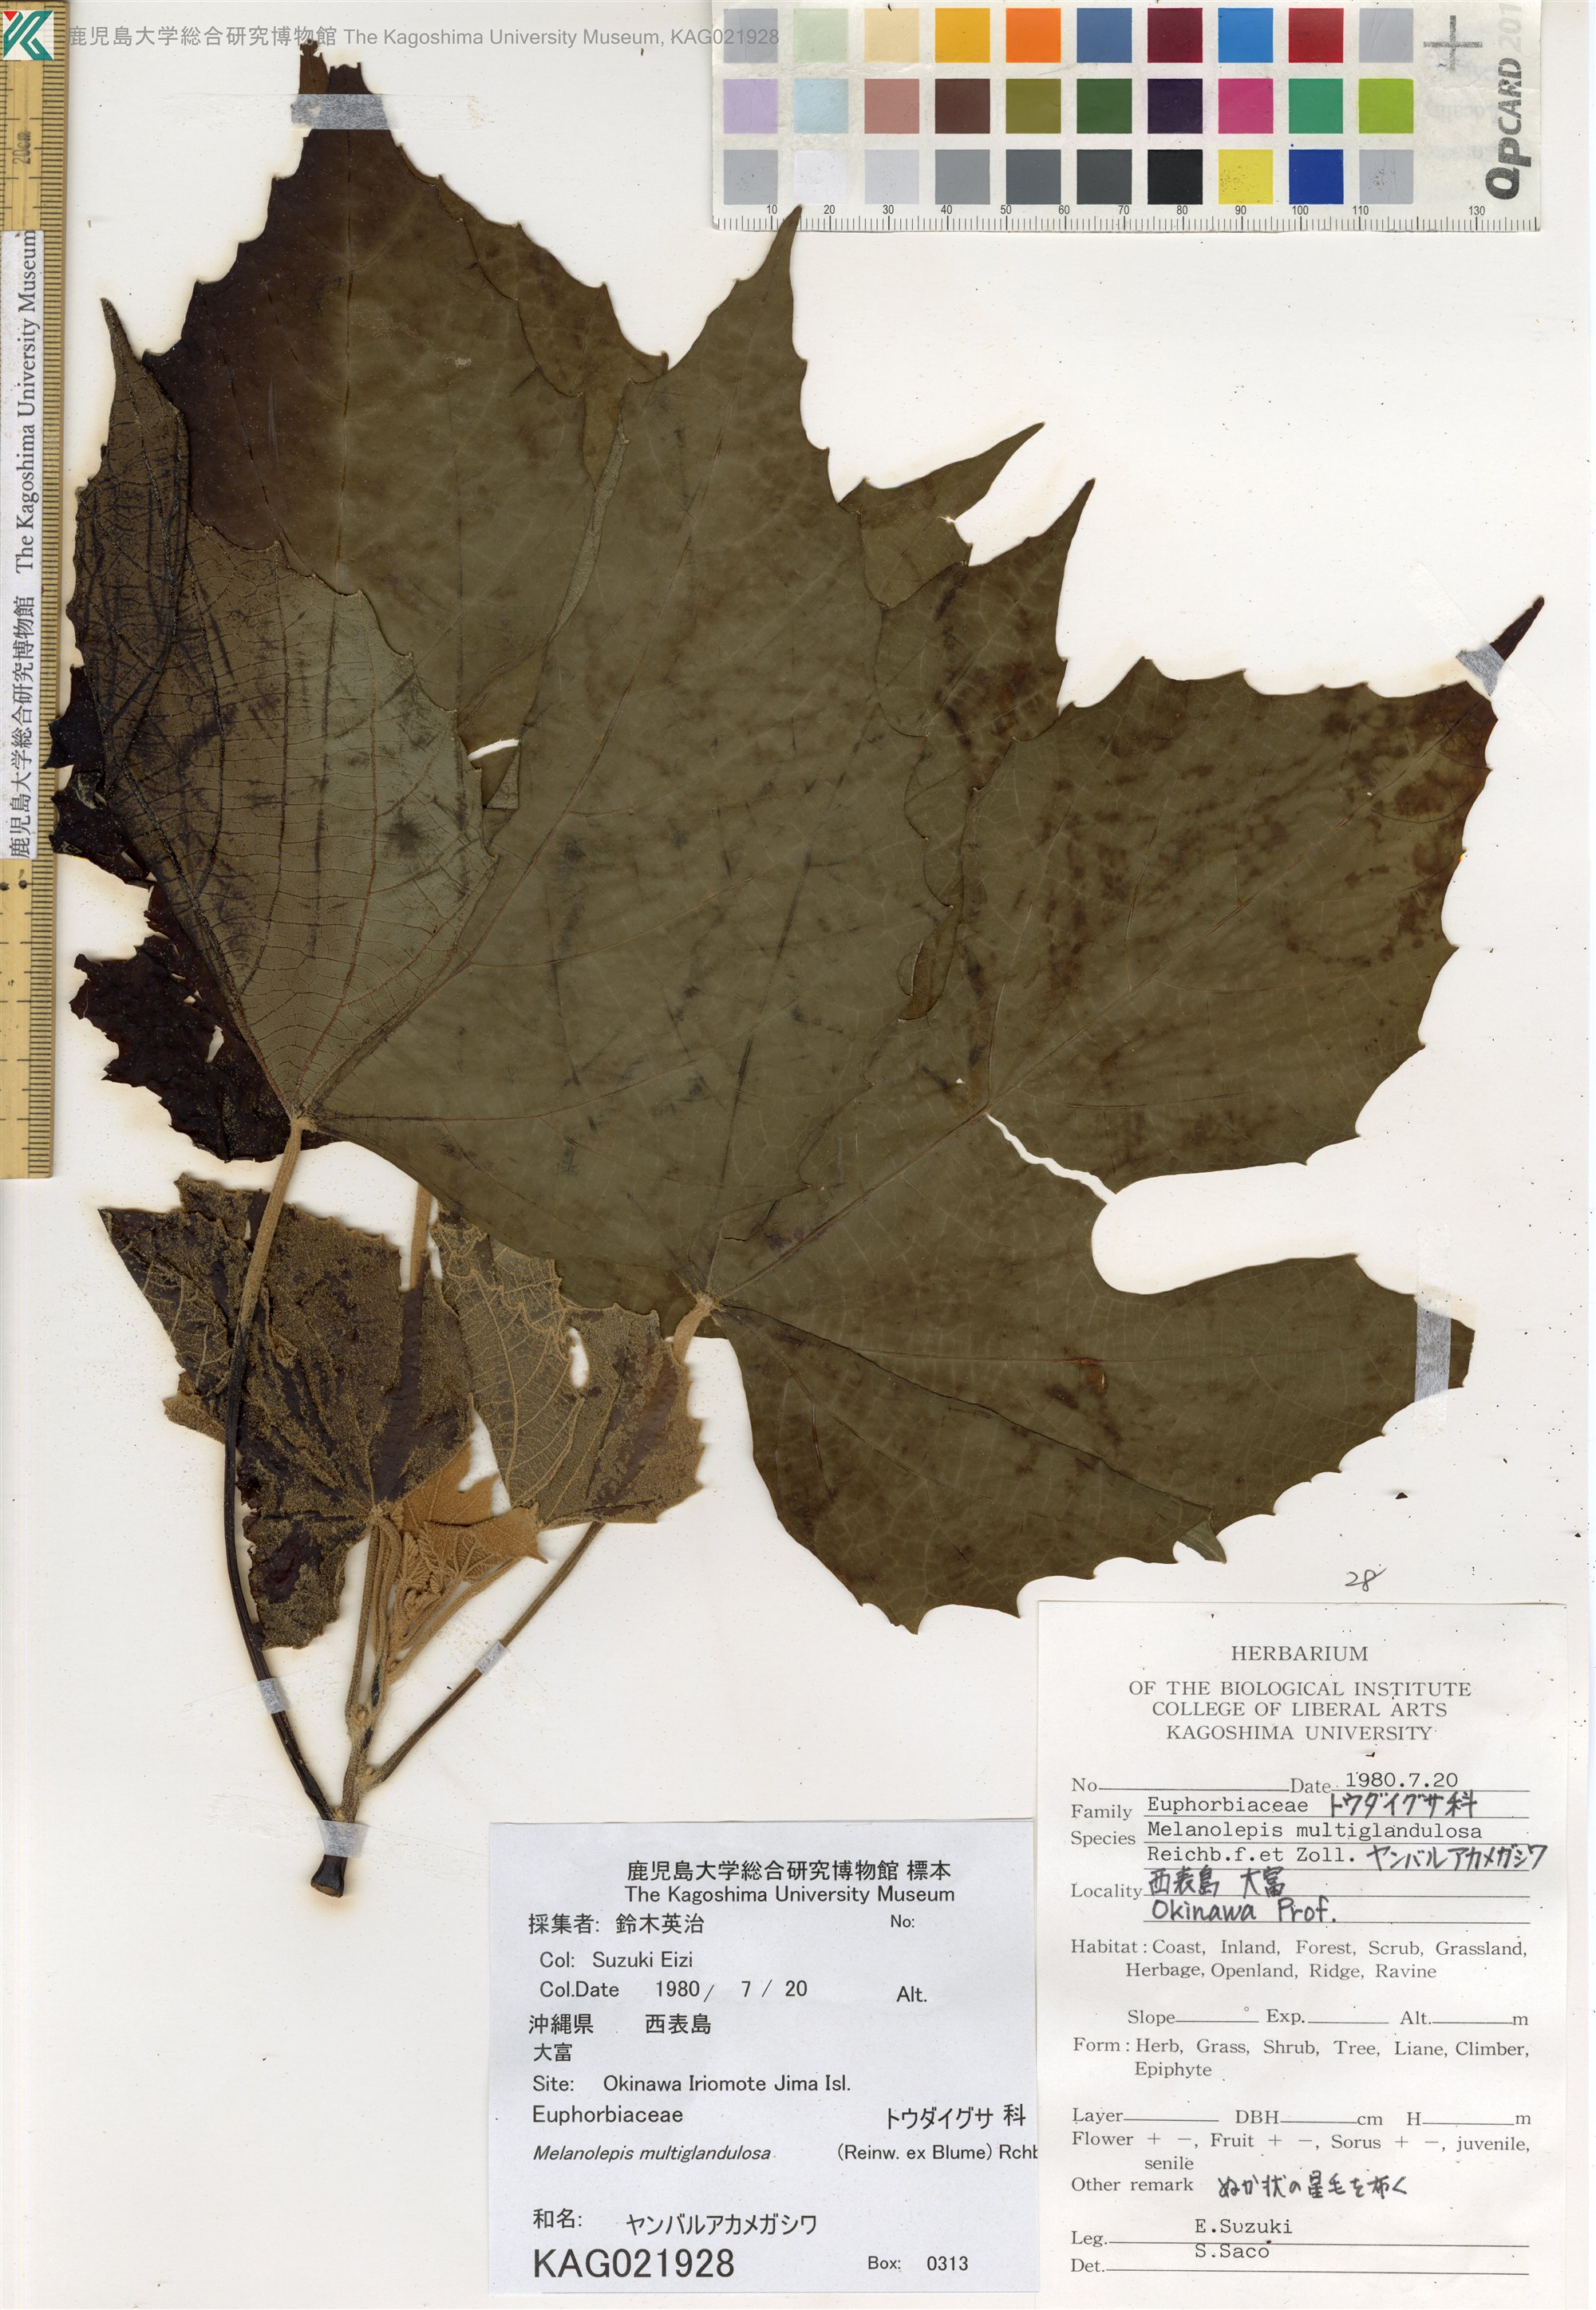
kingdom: Plantae
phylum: Tracheophyta
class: Magnoliopsida
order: Malpighiales
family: Euphorbiaceae
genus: Melanolepis
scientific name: Melanolepis multiglandulosa
